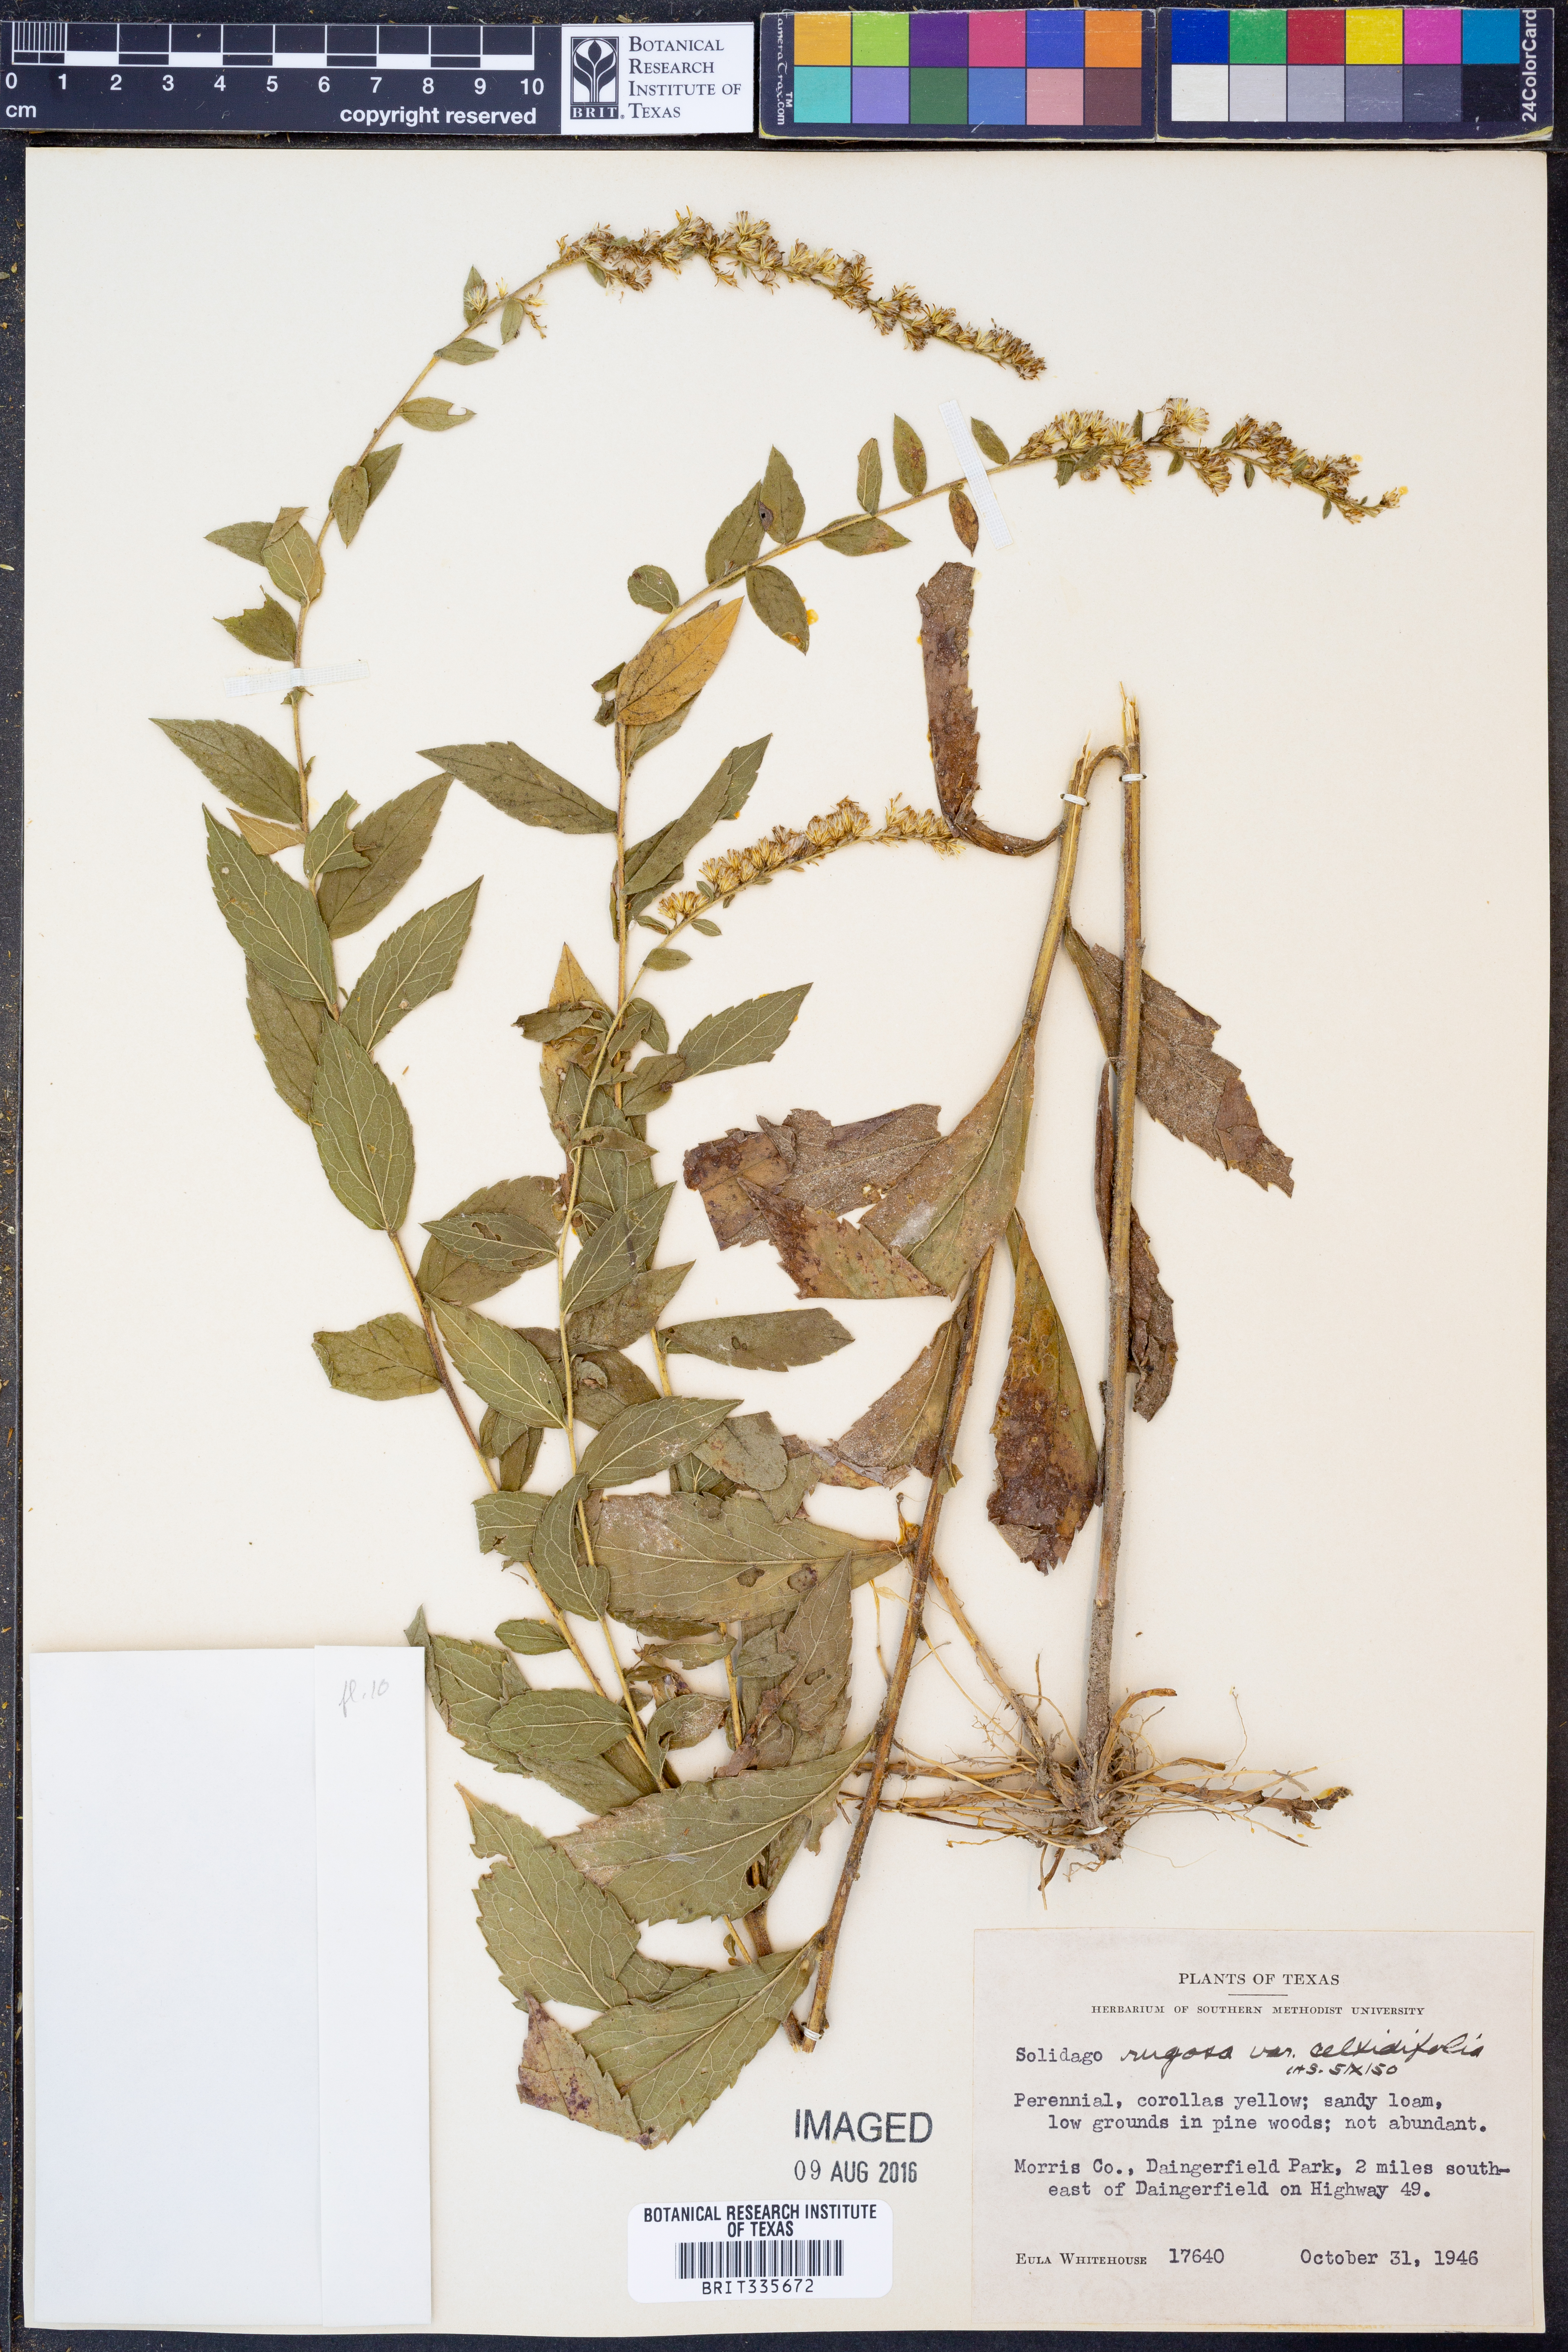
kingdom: Plantae
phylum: Tracheophyta
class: Magnoliopsida
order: Asterales
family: Asteraceae
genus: Solidago
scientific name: Solidago rugosa
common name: Rough-stemmed goldenrod
